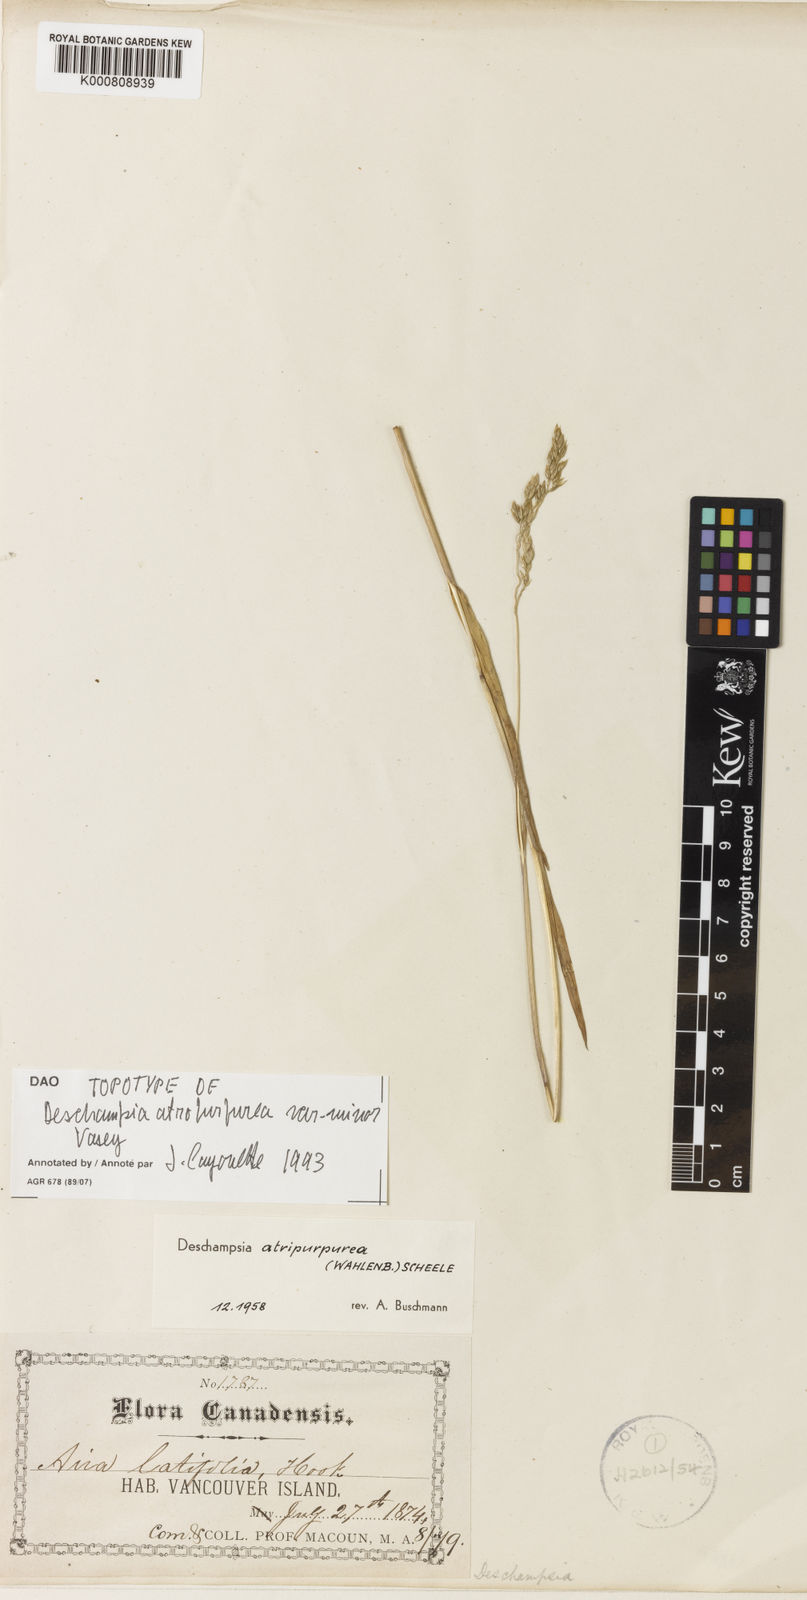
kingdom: Plantae
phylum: Tracheophyta
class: Liliopsida
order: Poales
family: Poaceae
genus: Vahlodea
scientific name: Vahlodea atropurpurea
